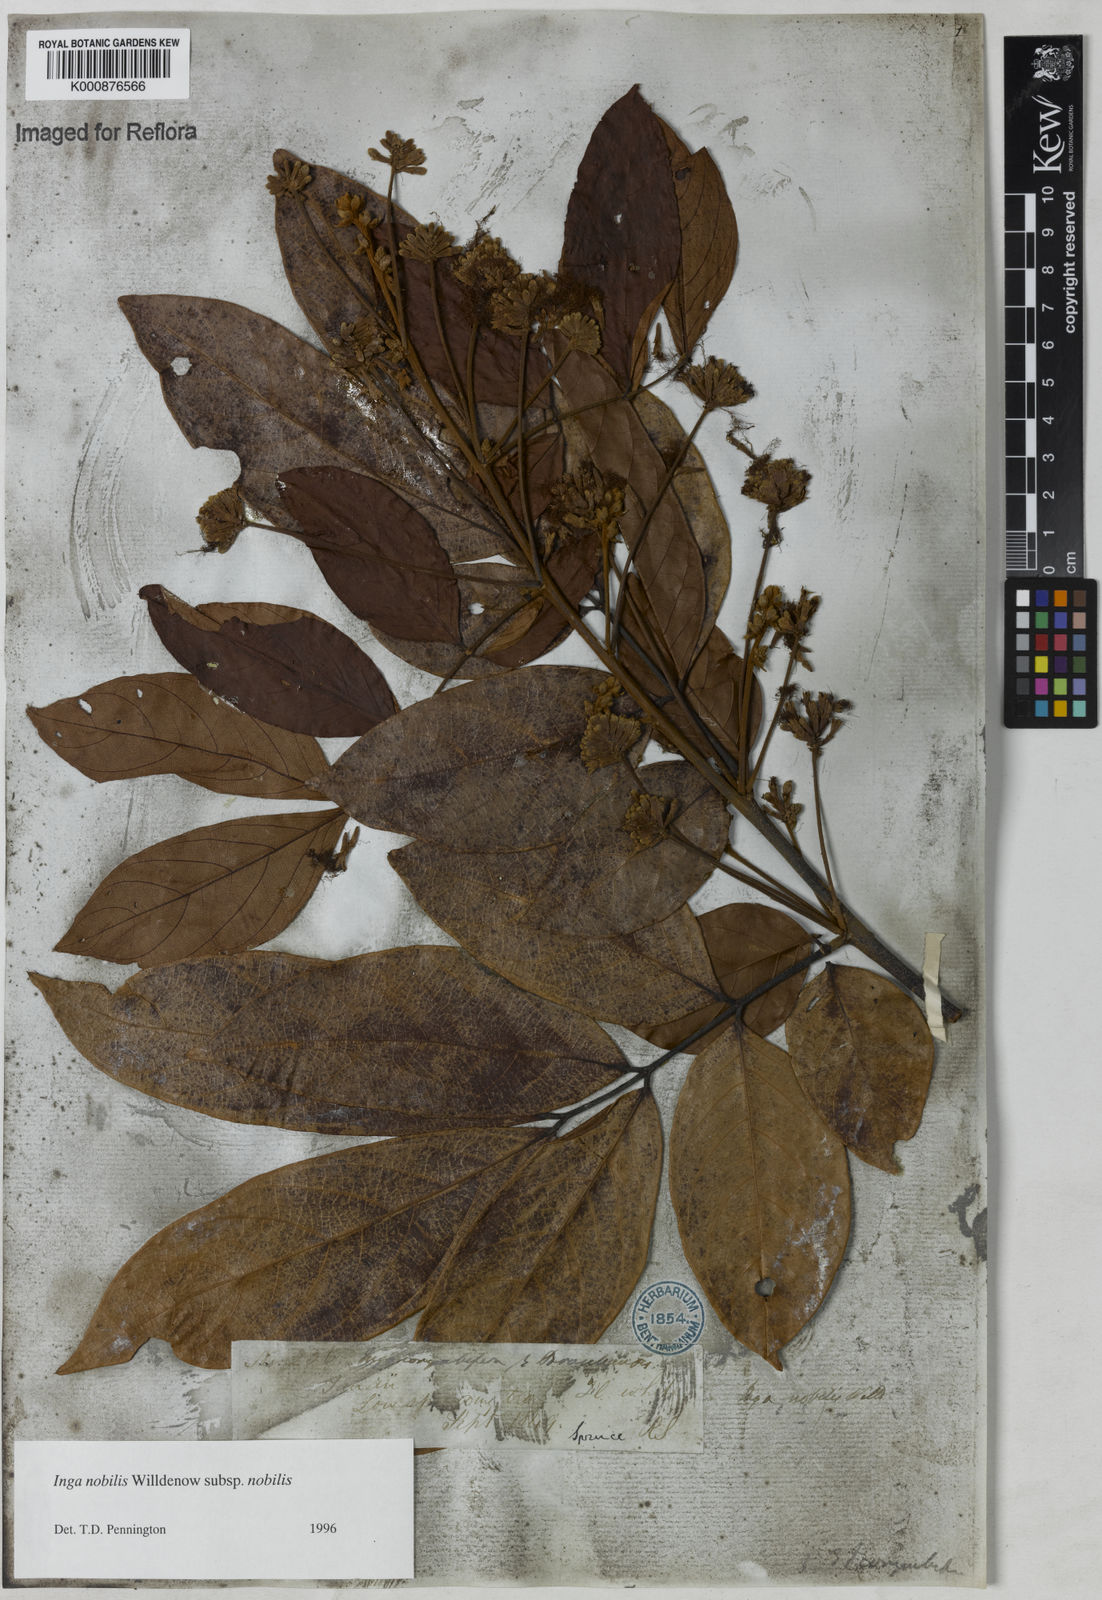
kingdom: Plantae
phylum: Tracheophyta
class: Magnoliopsida
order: Fabales
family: Fabaceae
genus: Inga
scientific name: Inga nobilis
